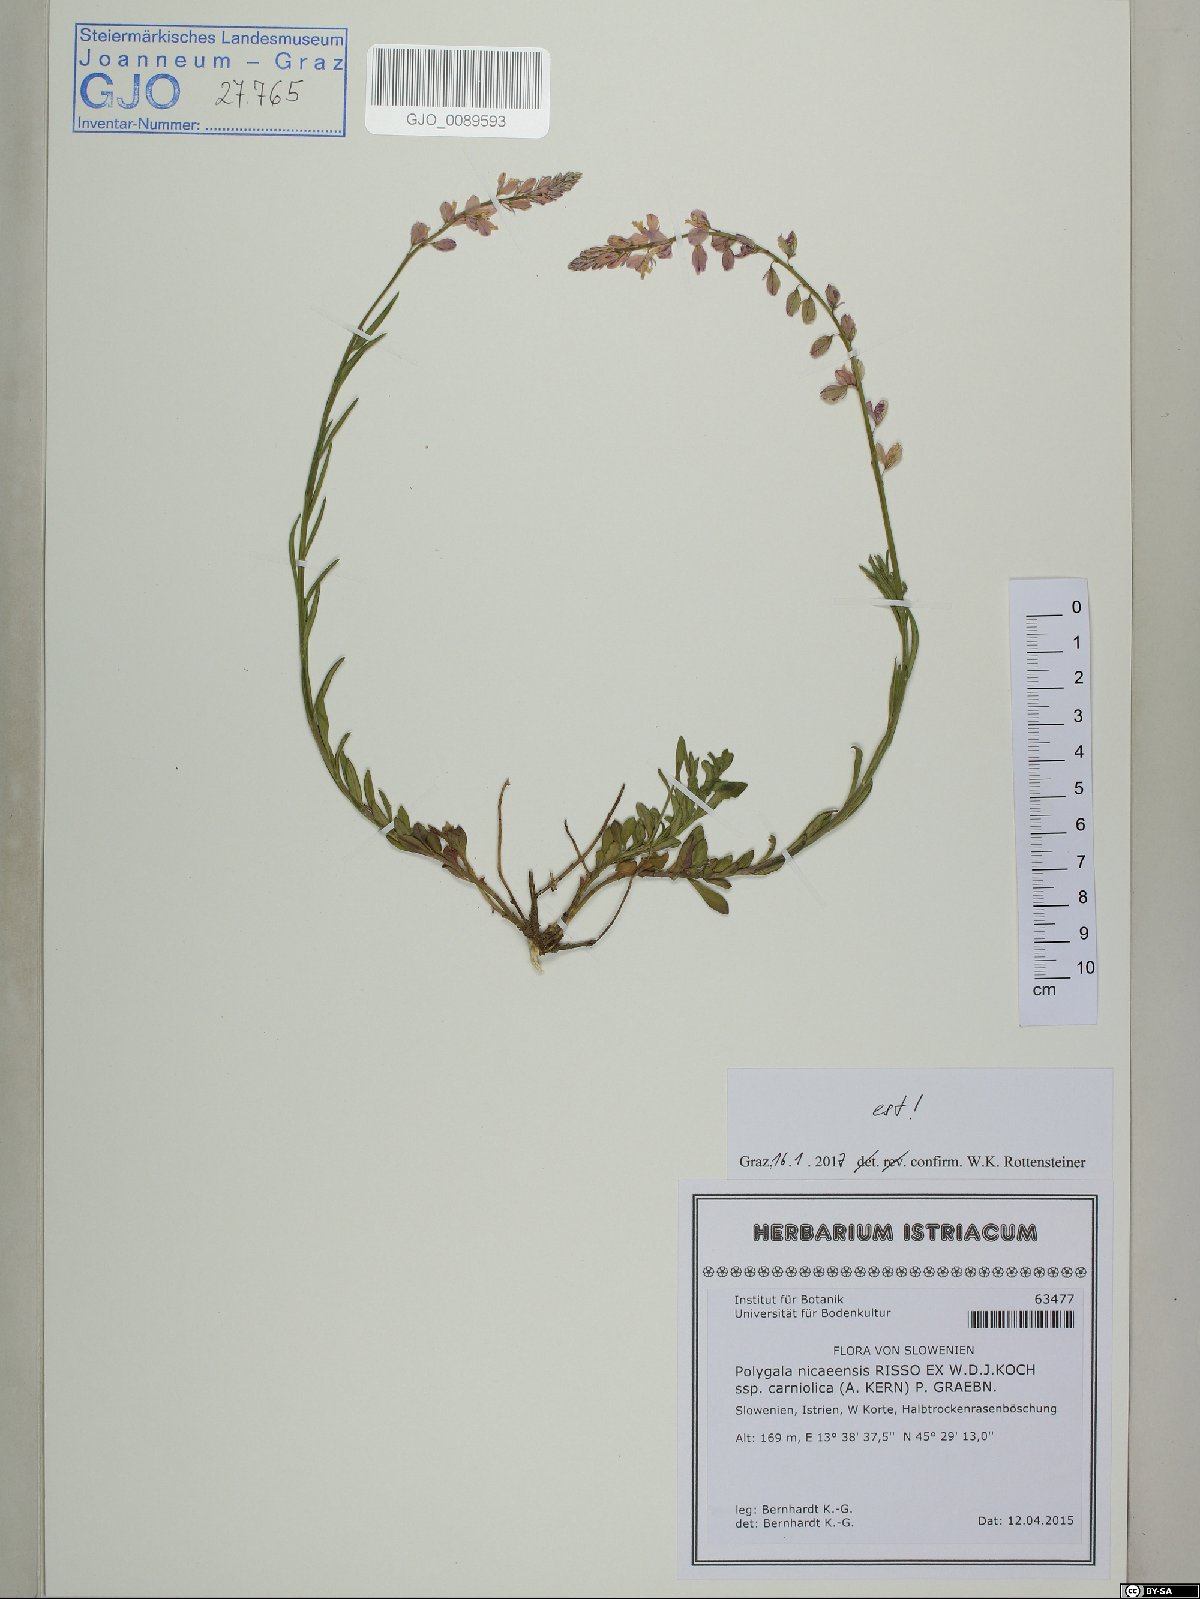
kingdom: Plantae
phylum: Tracheophyta
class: Magnoliopsida
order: Fabales
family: Polygalaceae
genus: Polygala
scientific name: Polygala
